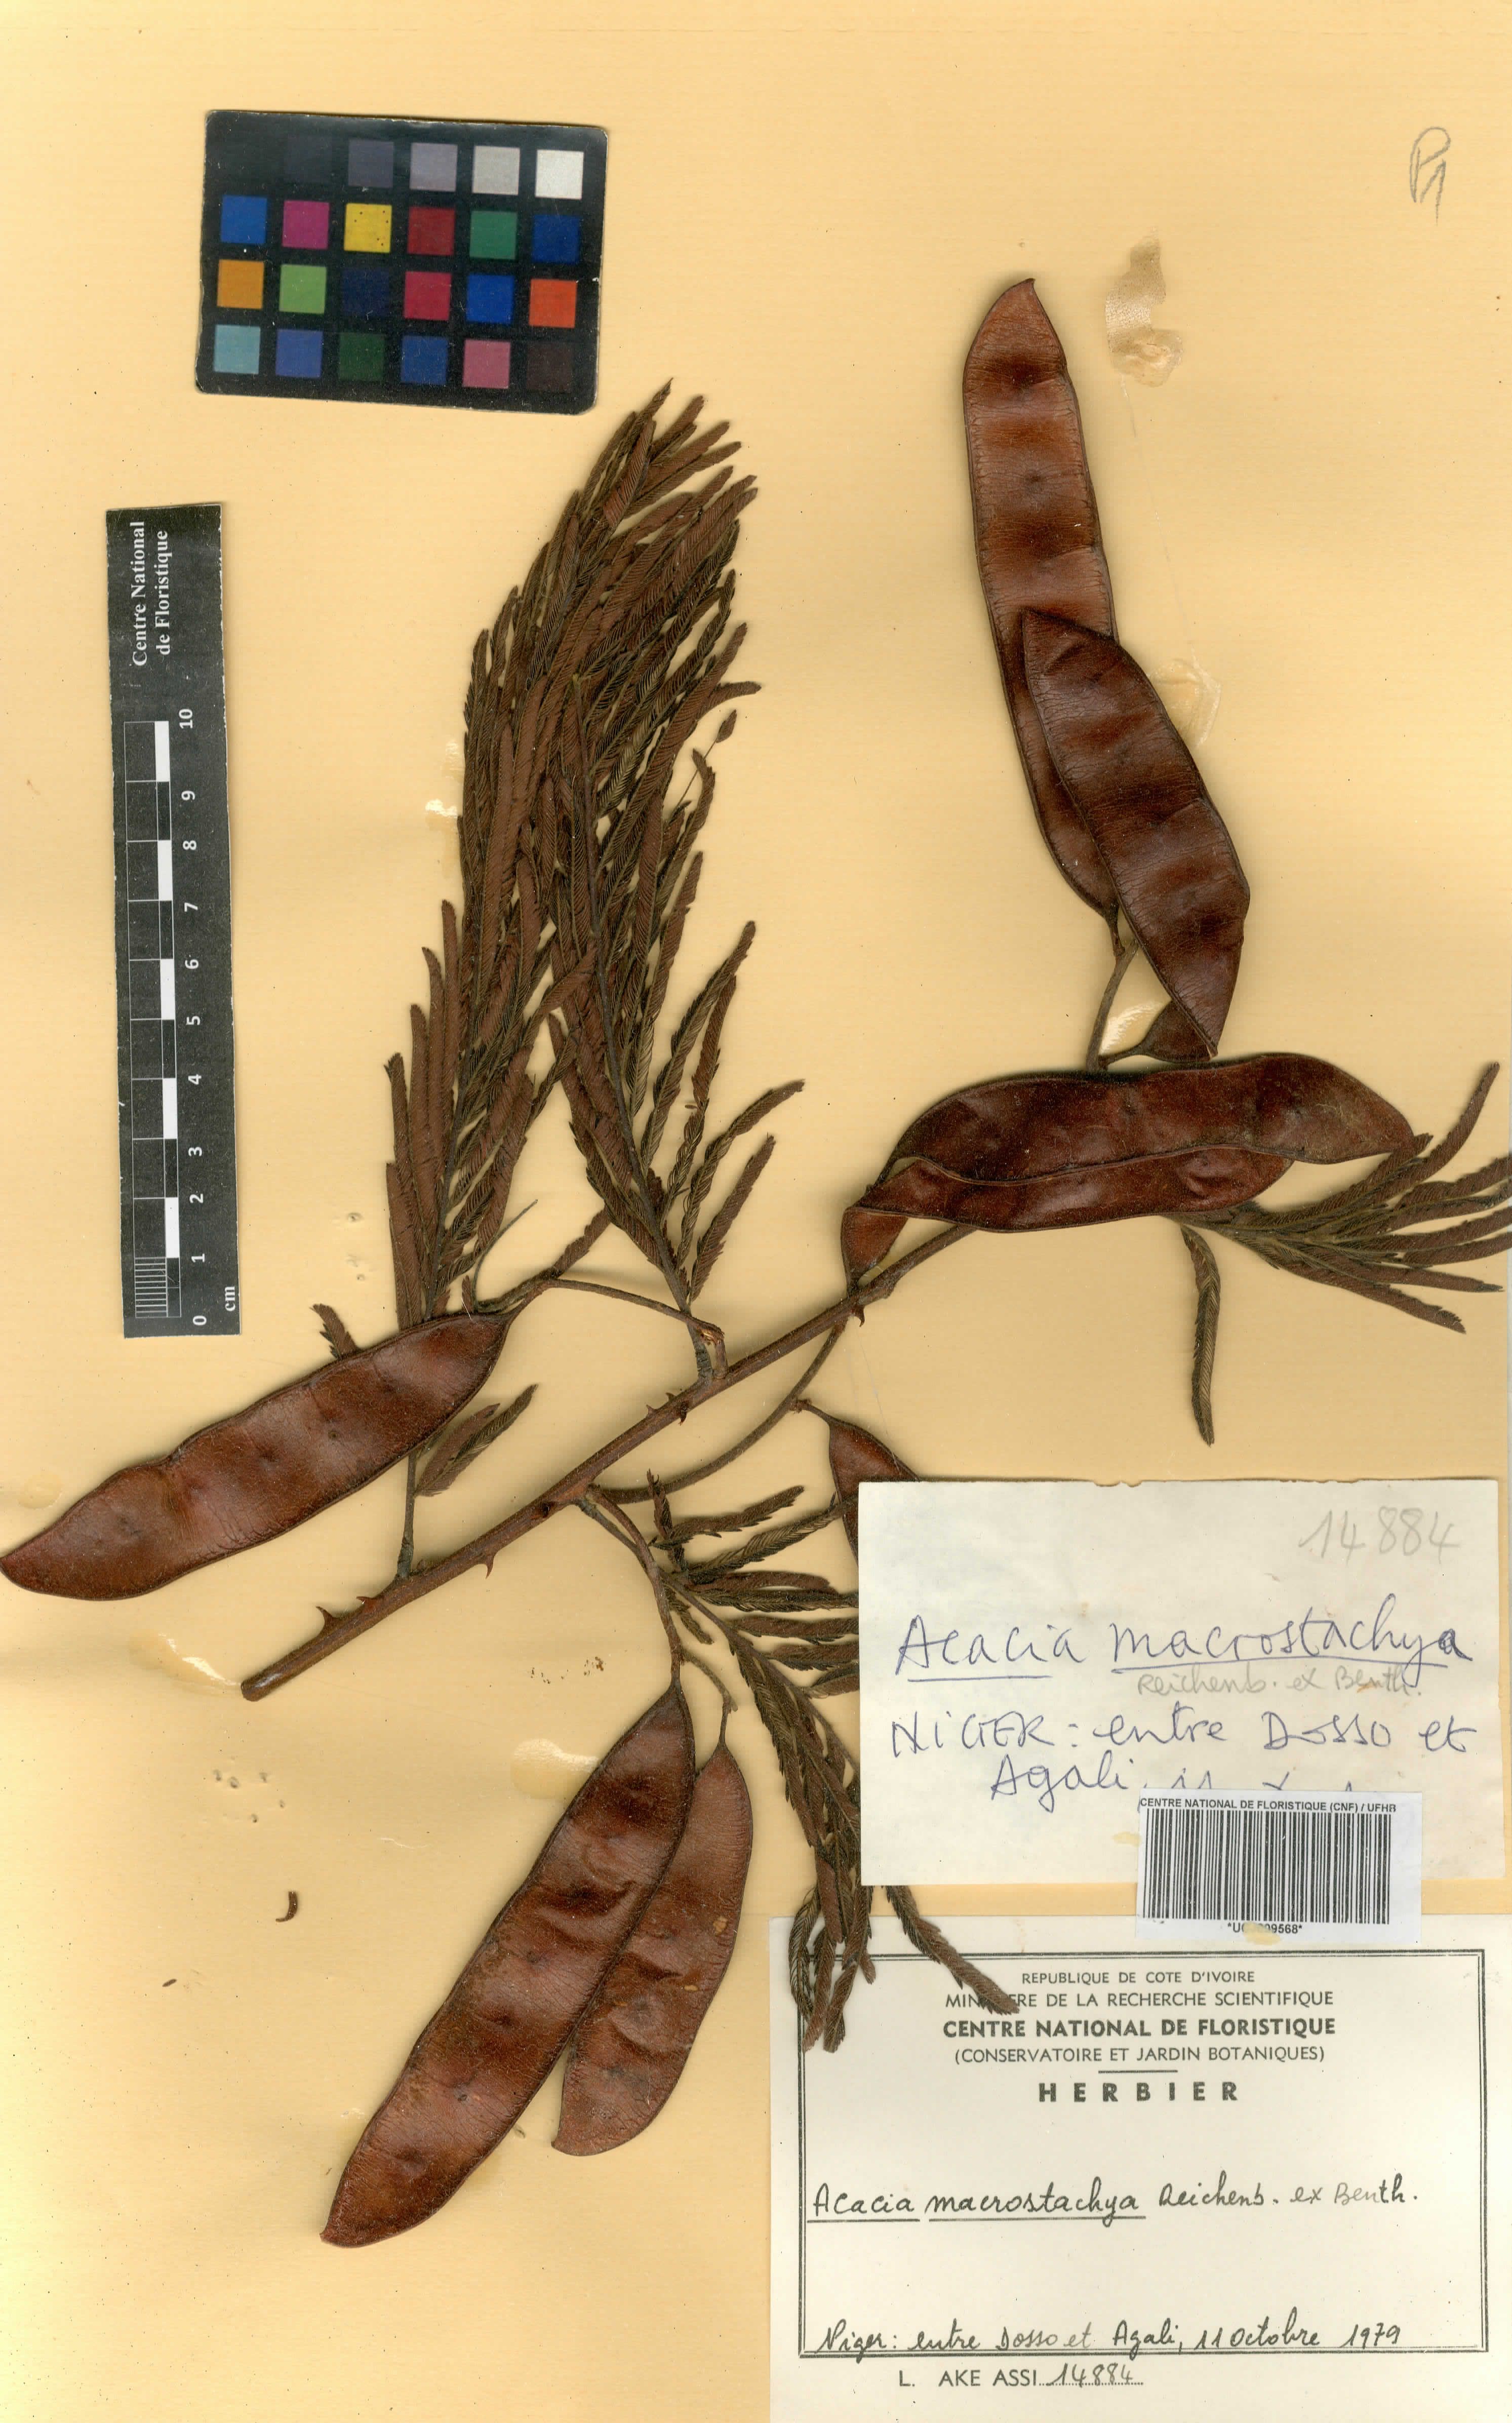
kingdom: Plantae
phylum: Tracheophyta
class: Magnoliopsida
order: Fabales
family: Fabaceae
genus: Senegalia
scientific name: Senegalia macrostachya
